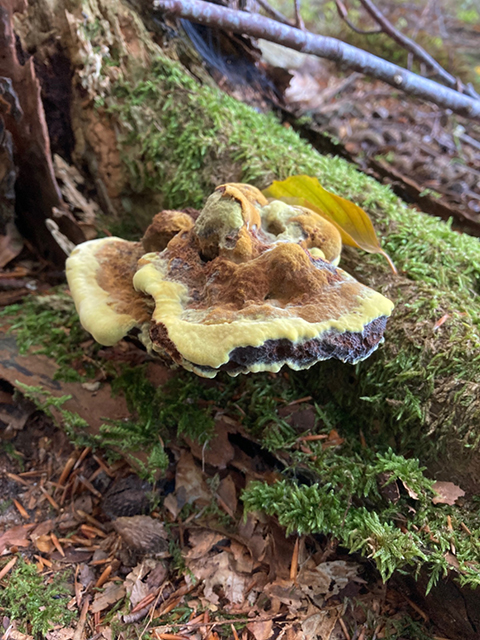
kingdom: Fungi
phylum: Basidiomycota
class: Agaricomycetes
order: Polyporales
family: Laetiporaceae
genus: Phaeolus
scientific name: Phaeolus schweinitzii
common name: brunporesvamp
